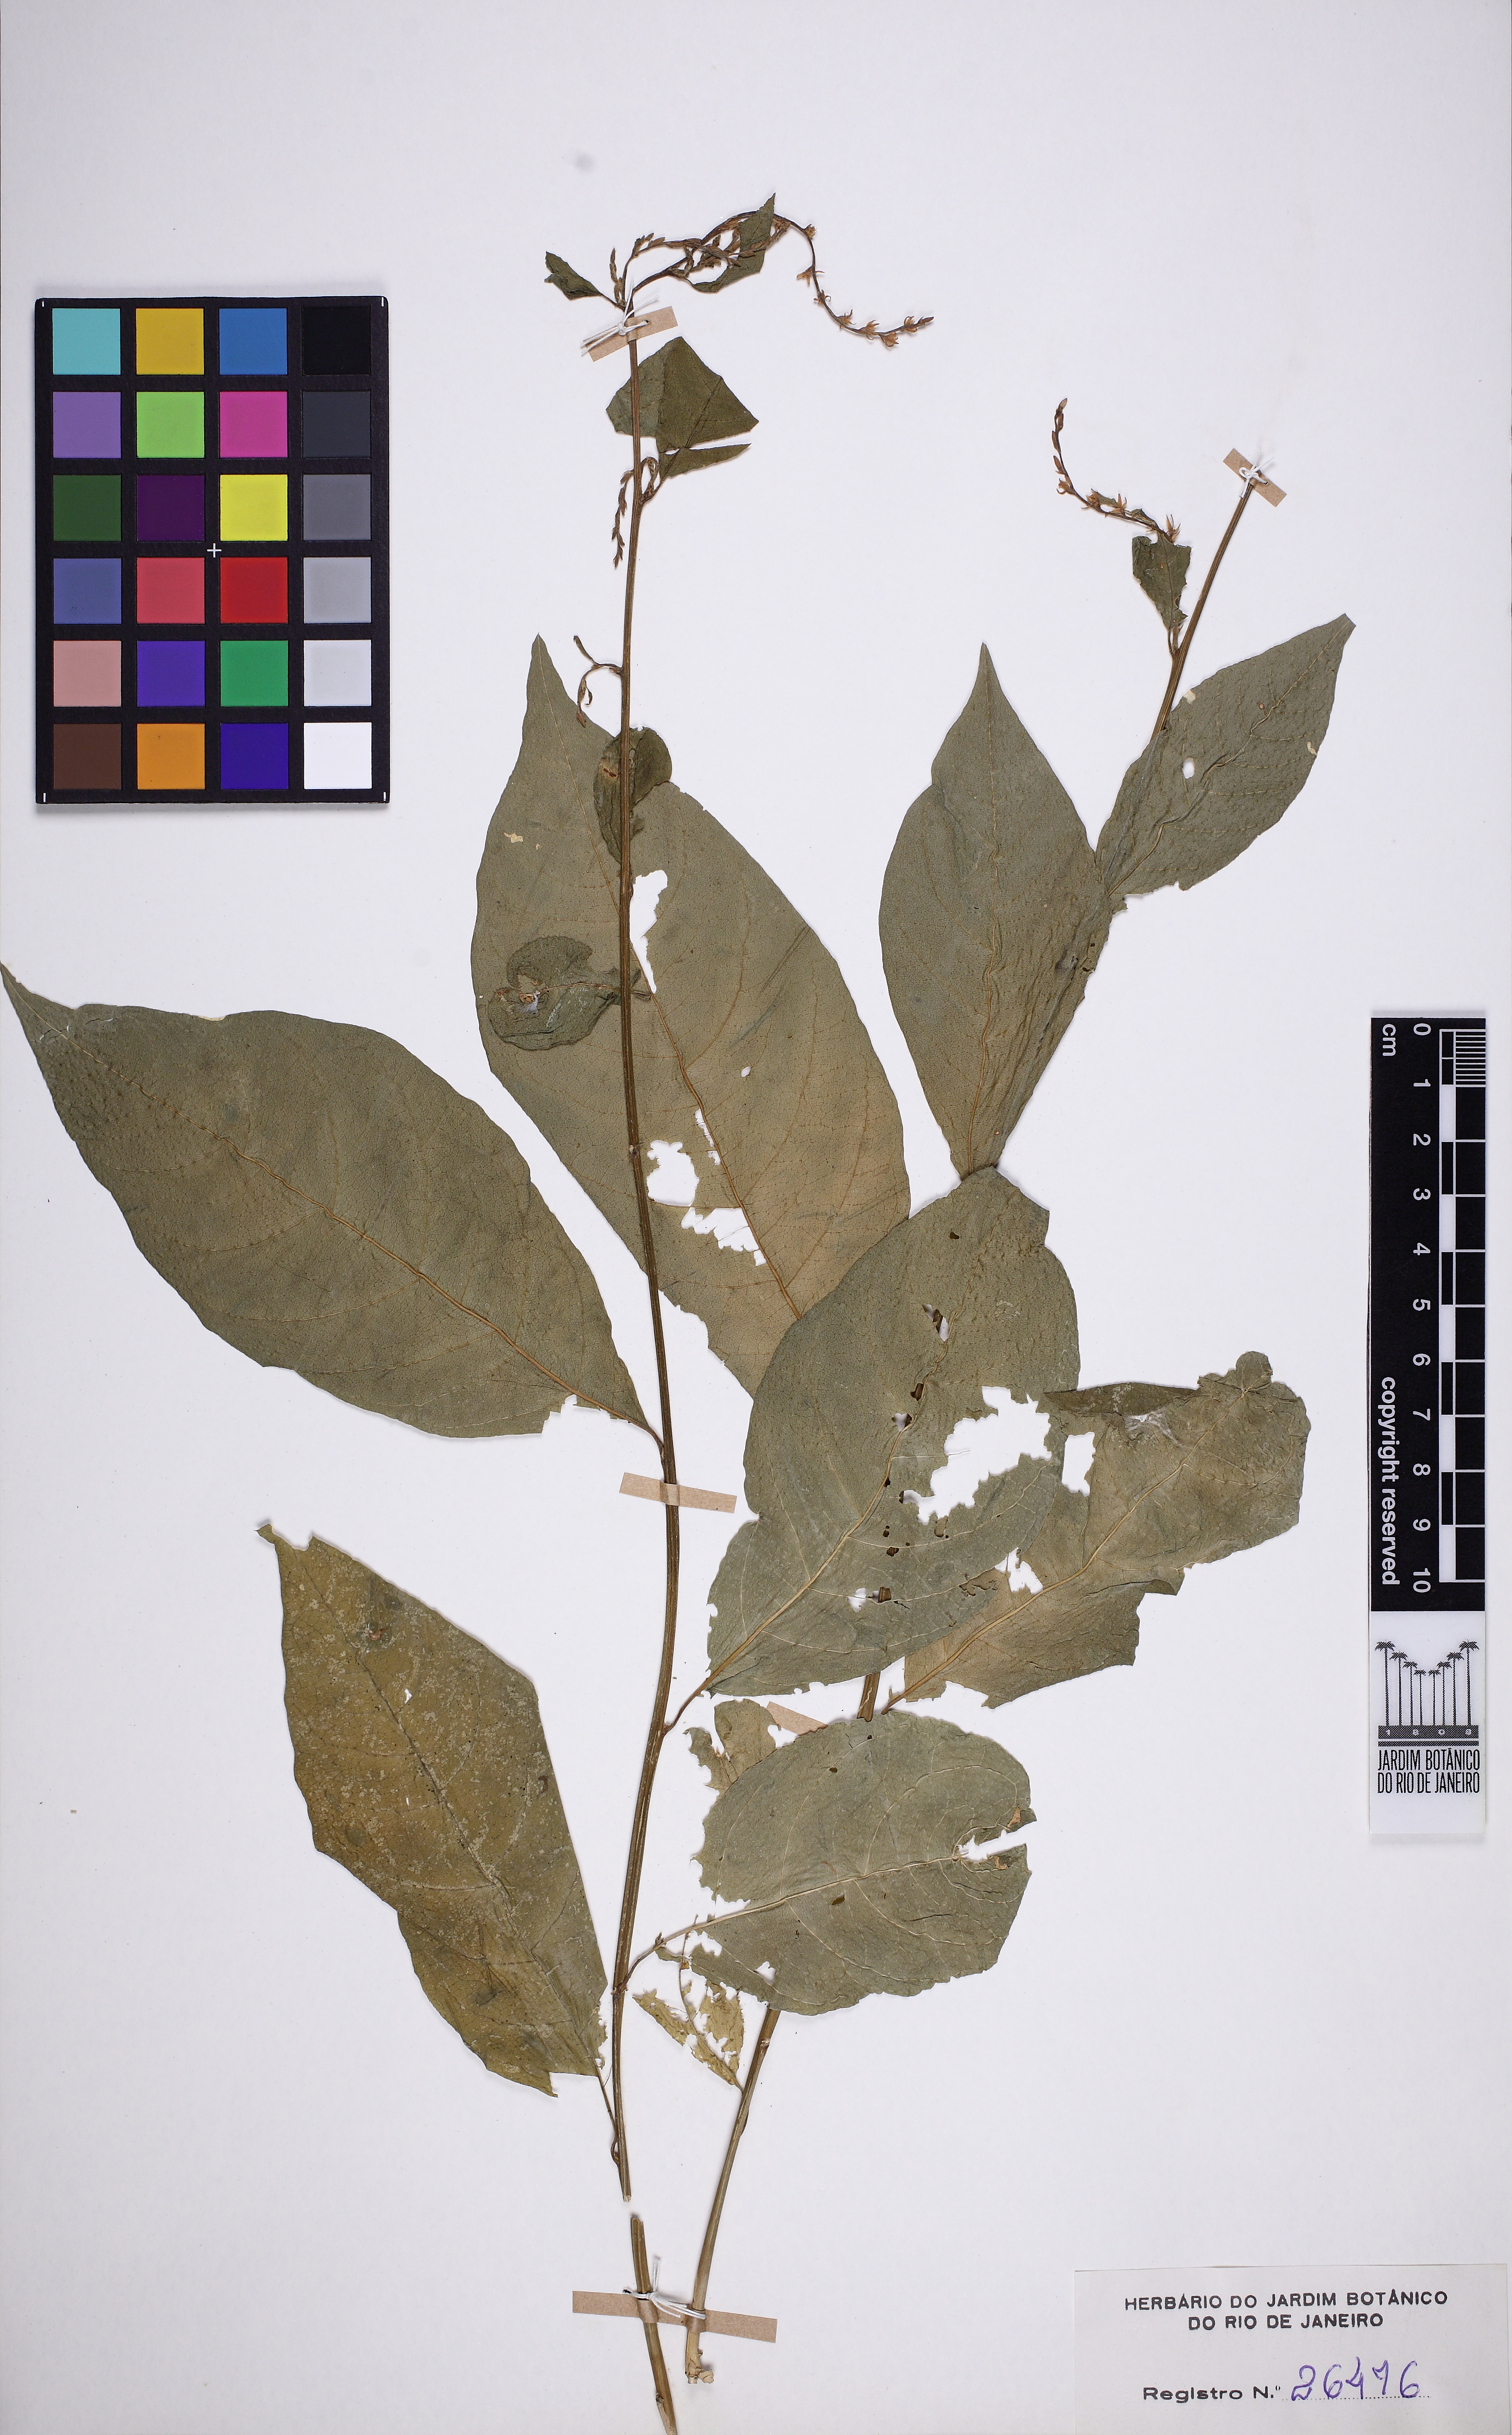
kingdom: Plantae
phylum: Tracheophyta
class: Magnoliopsida
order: Caryophyllales
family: Phytolaccaceae
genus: Petiveria
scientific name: Petiveria alliacea
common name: Garlicweed
